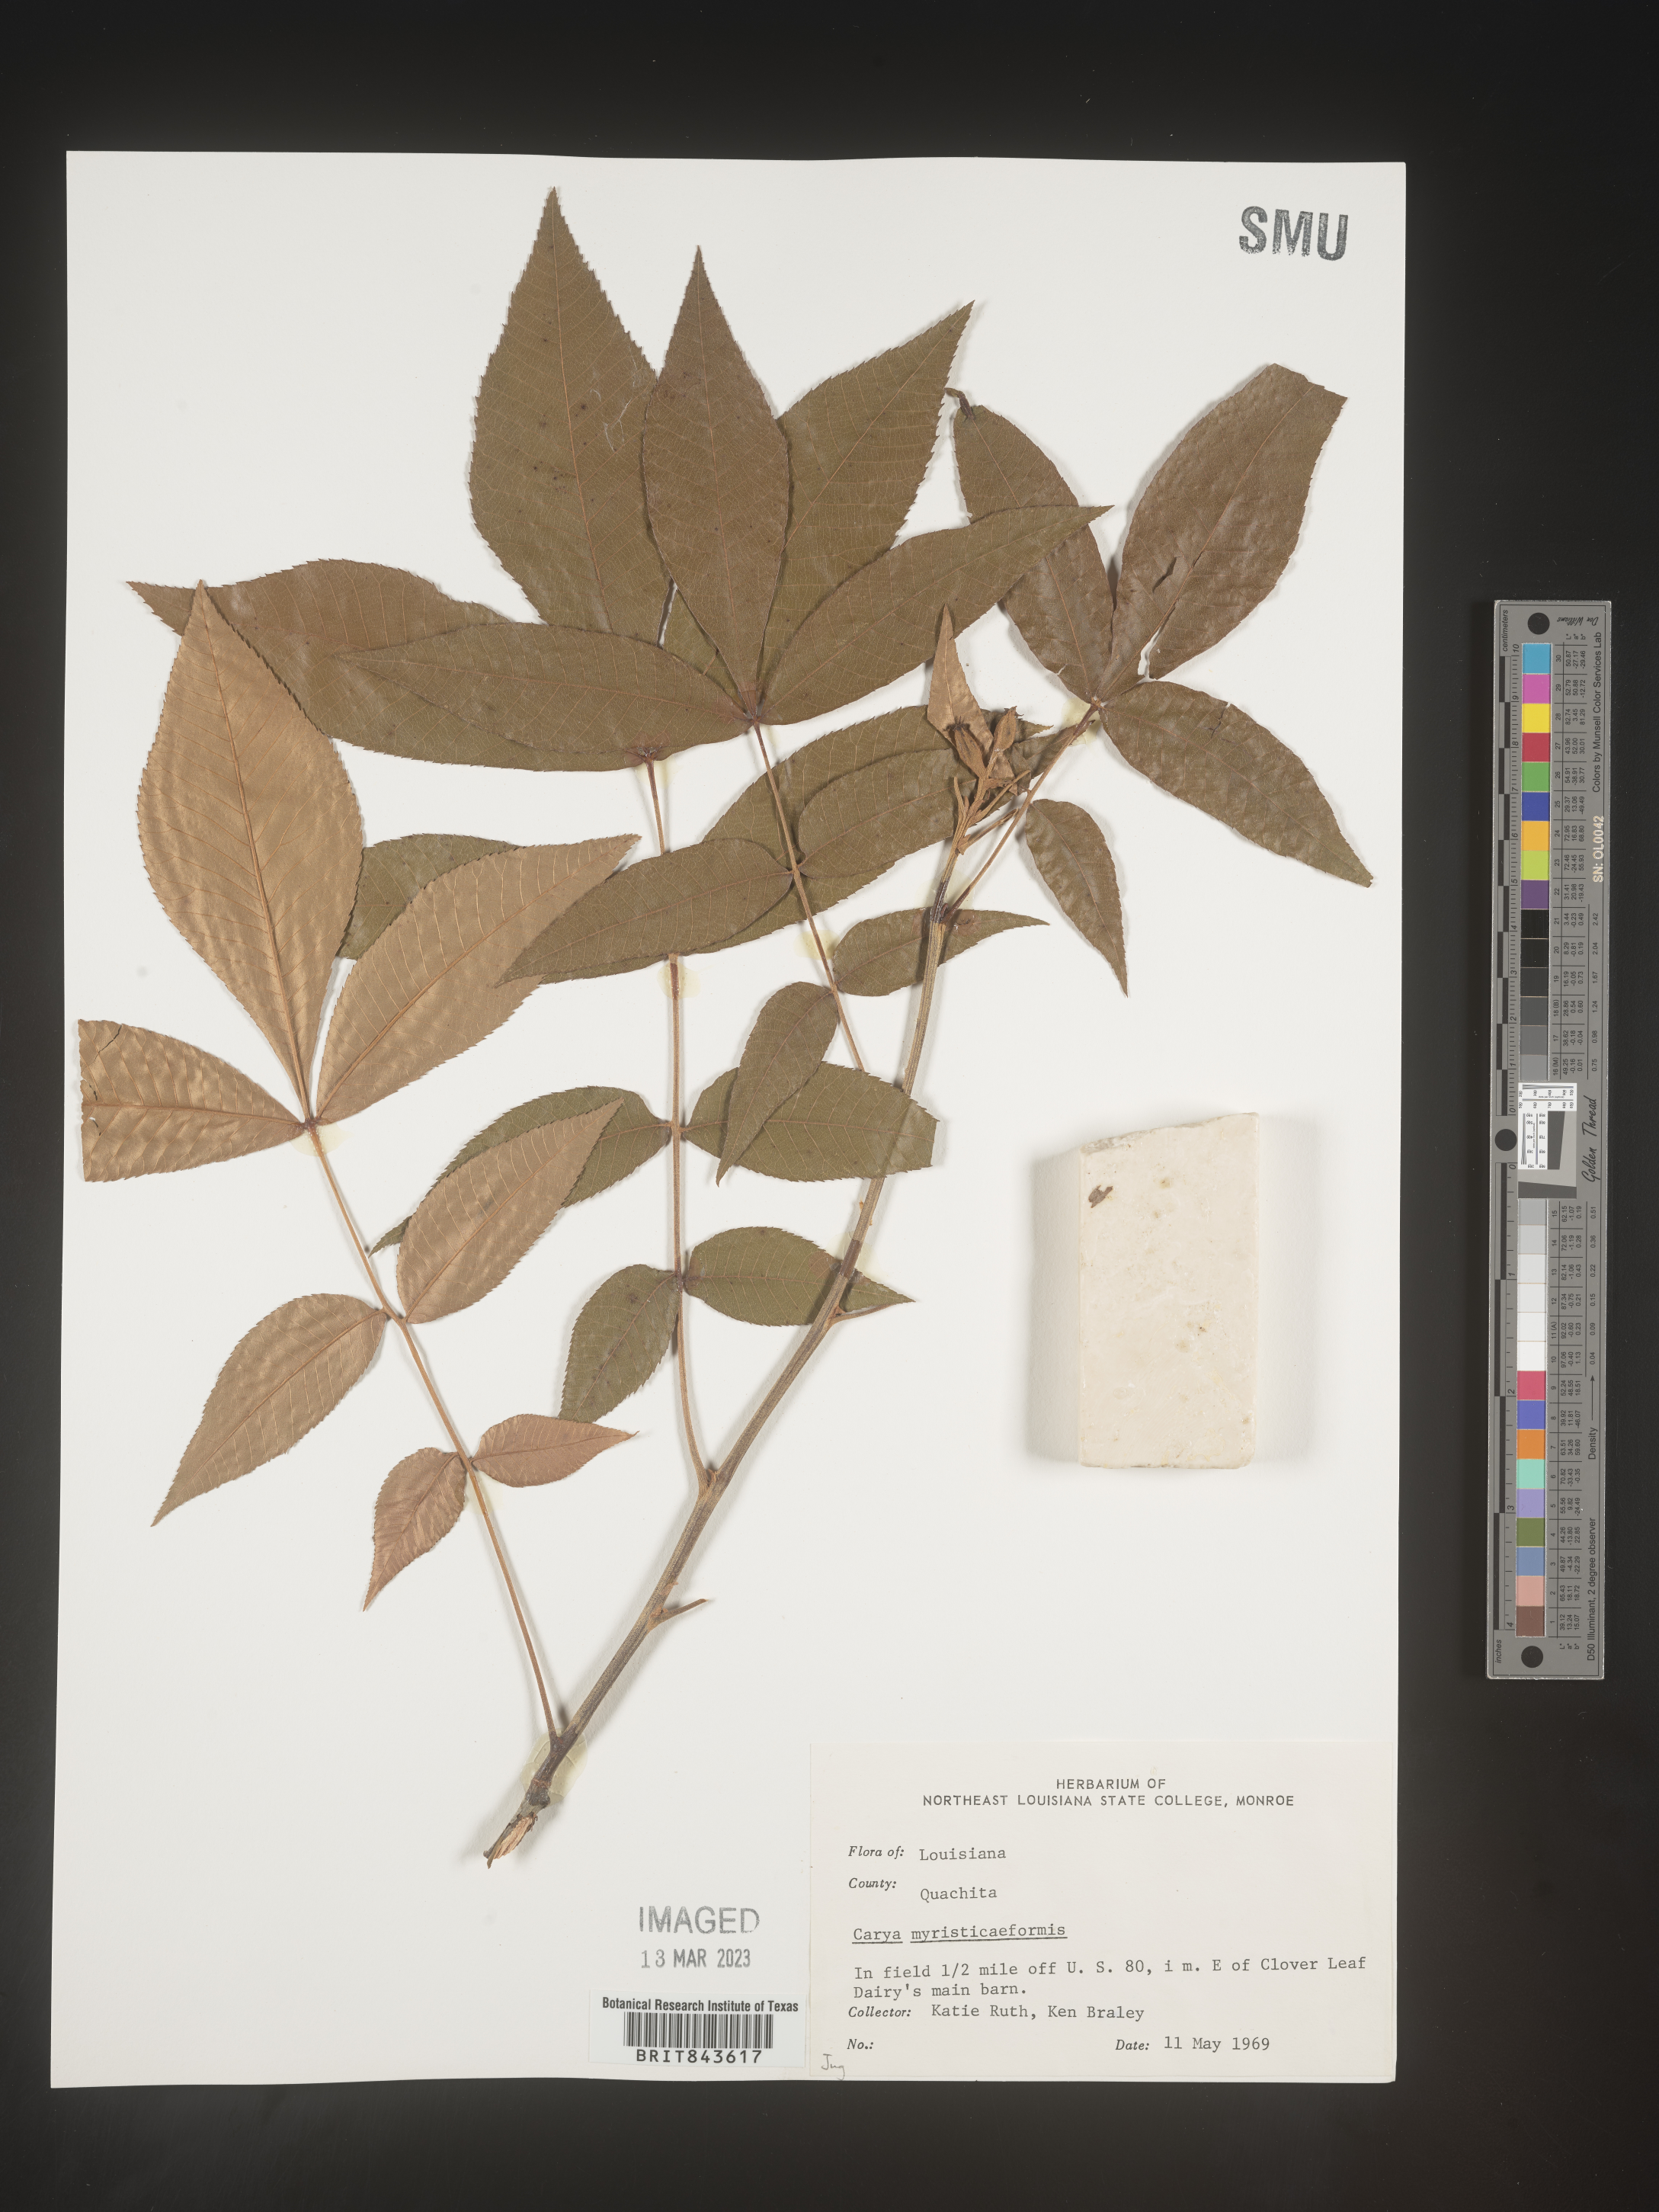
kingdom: Plantae
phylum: Tracheophyta
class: Magnoliopsida
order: Fagales
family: Juglandaceae
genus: Carya
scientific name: Carya myristiciformis
